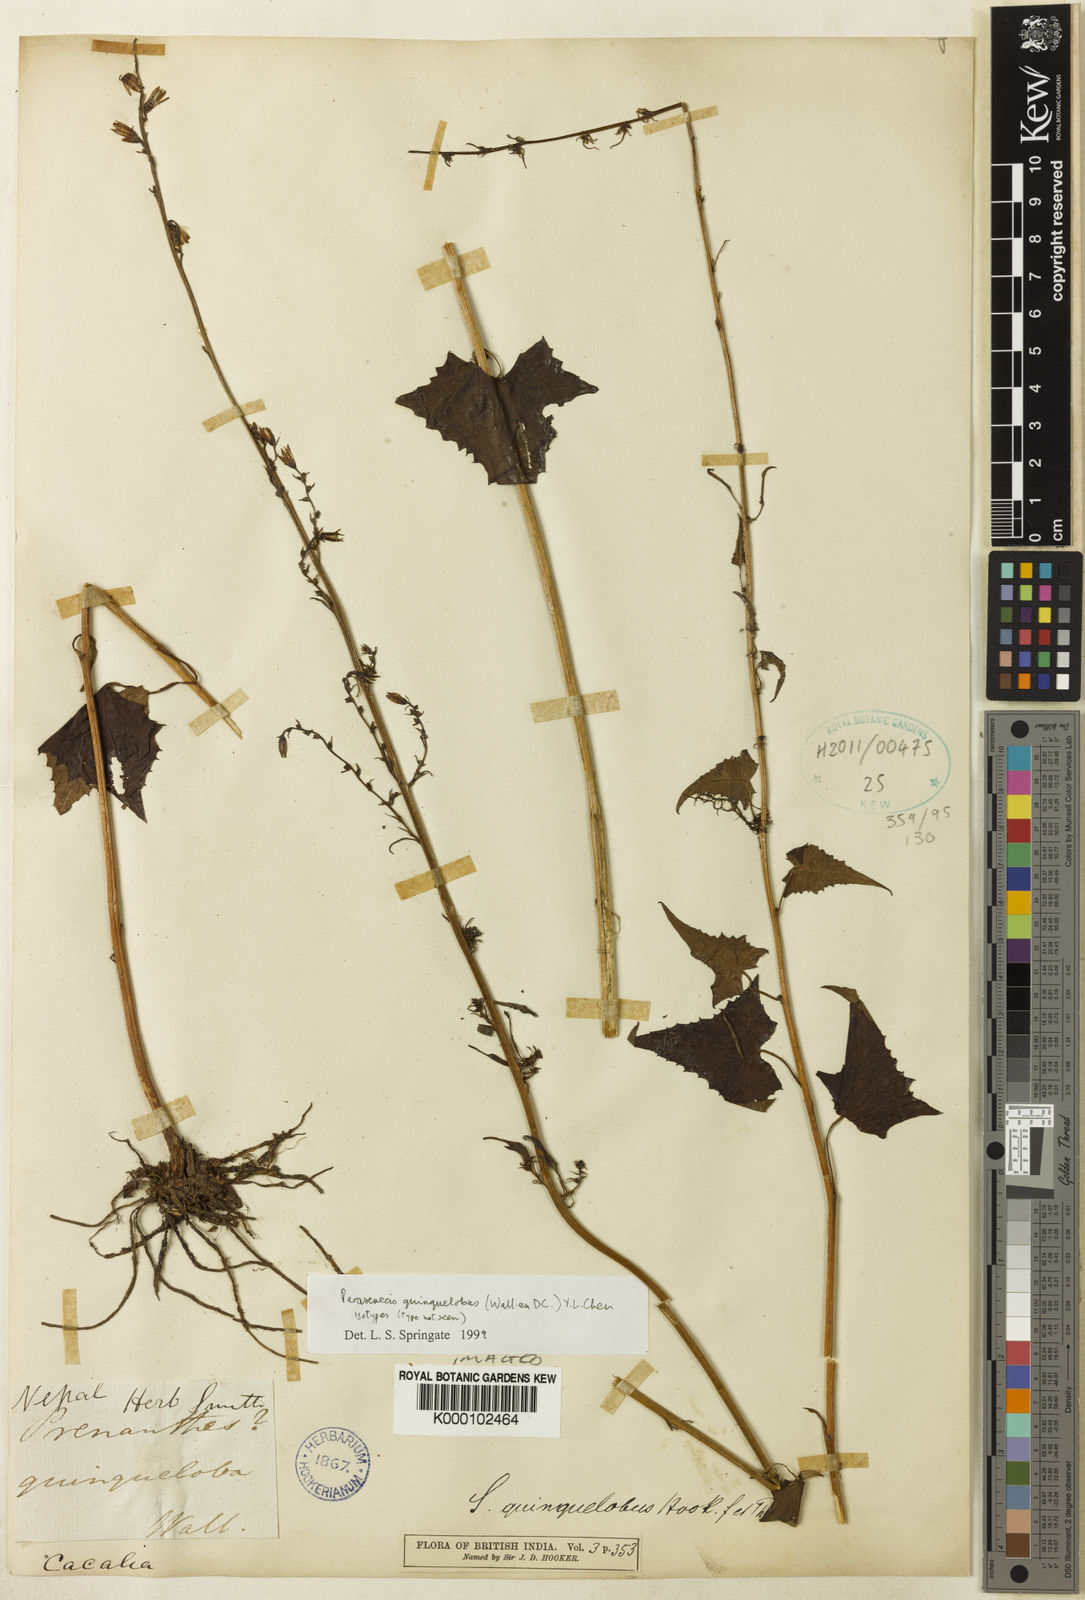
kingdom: Plantae
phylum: Tracheophyta
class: Magnoliopsida
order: Asterales
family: Asteraceae
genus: Parasenecio
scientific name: Parasenecio quinquelobus
